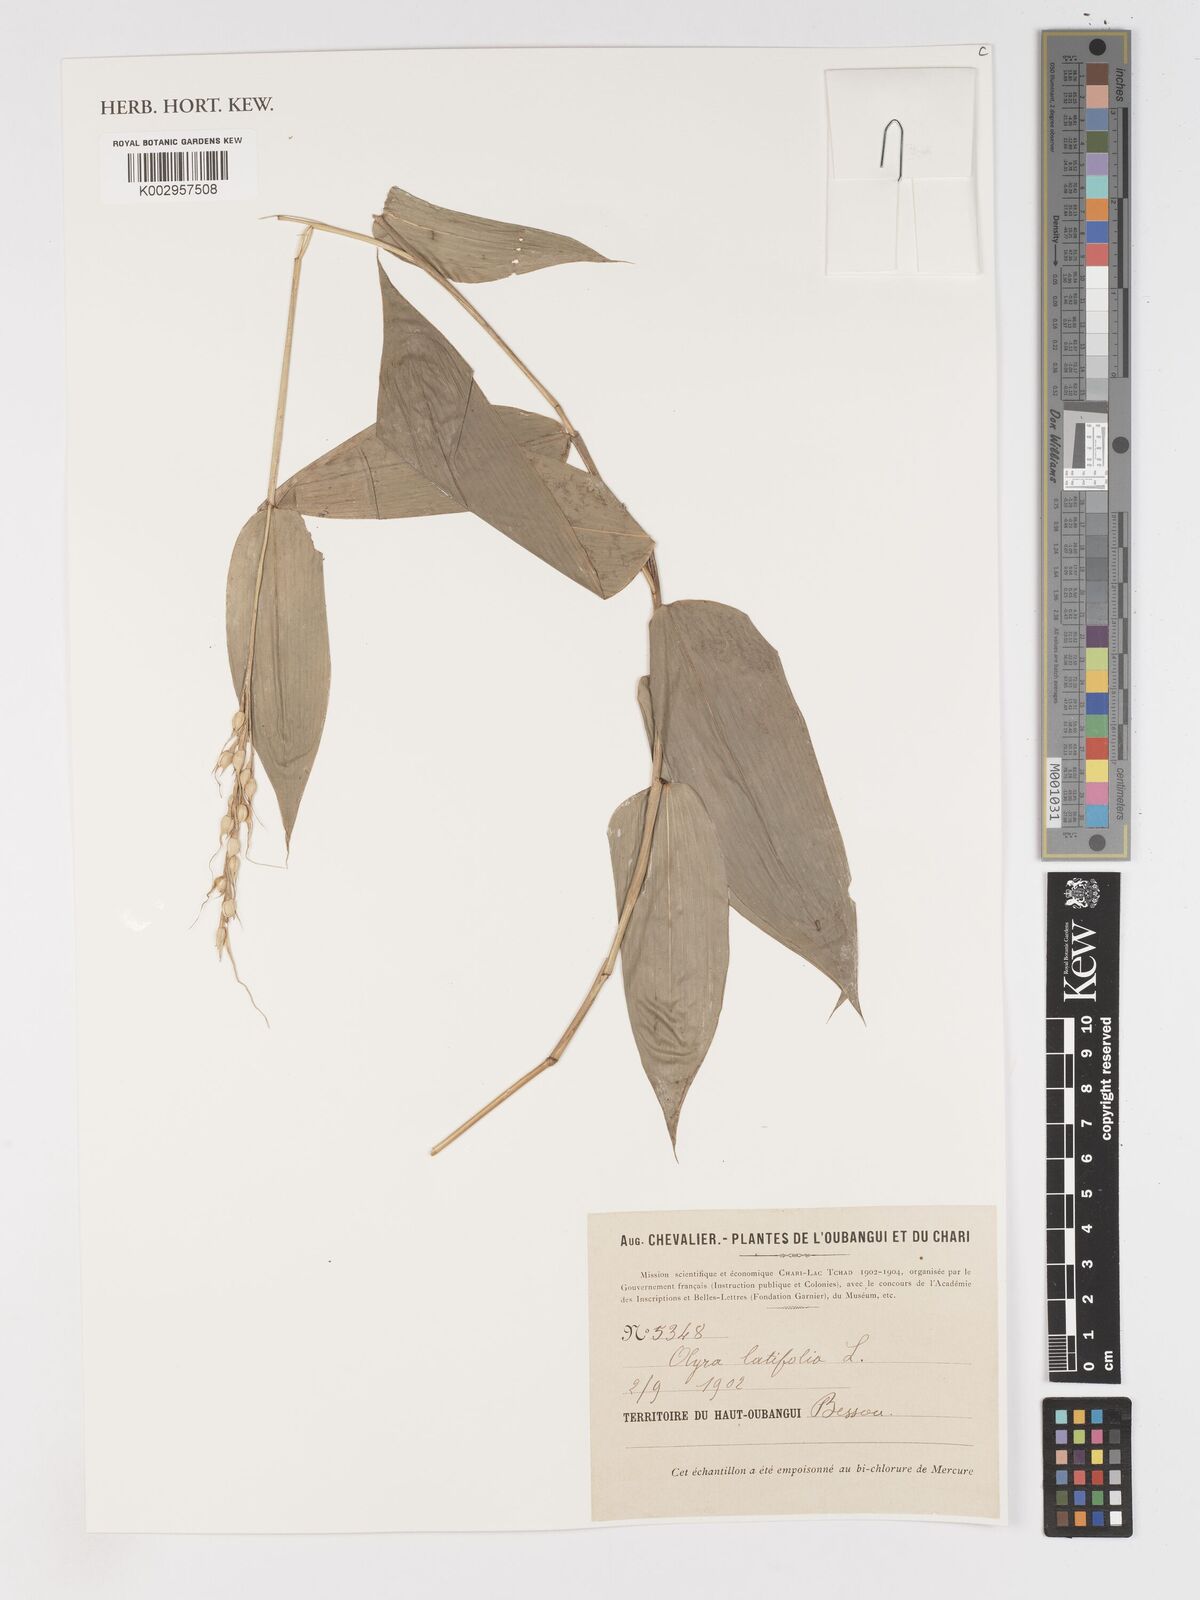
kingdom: Plantae
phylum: Tracheophyta
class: Liliopsida
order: Poales
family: Poaceae
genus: Olyra
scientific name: Olyra latifolia
